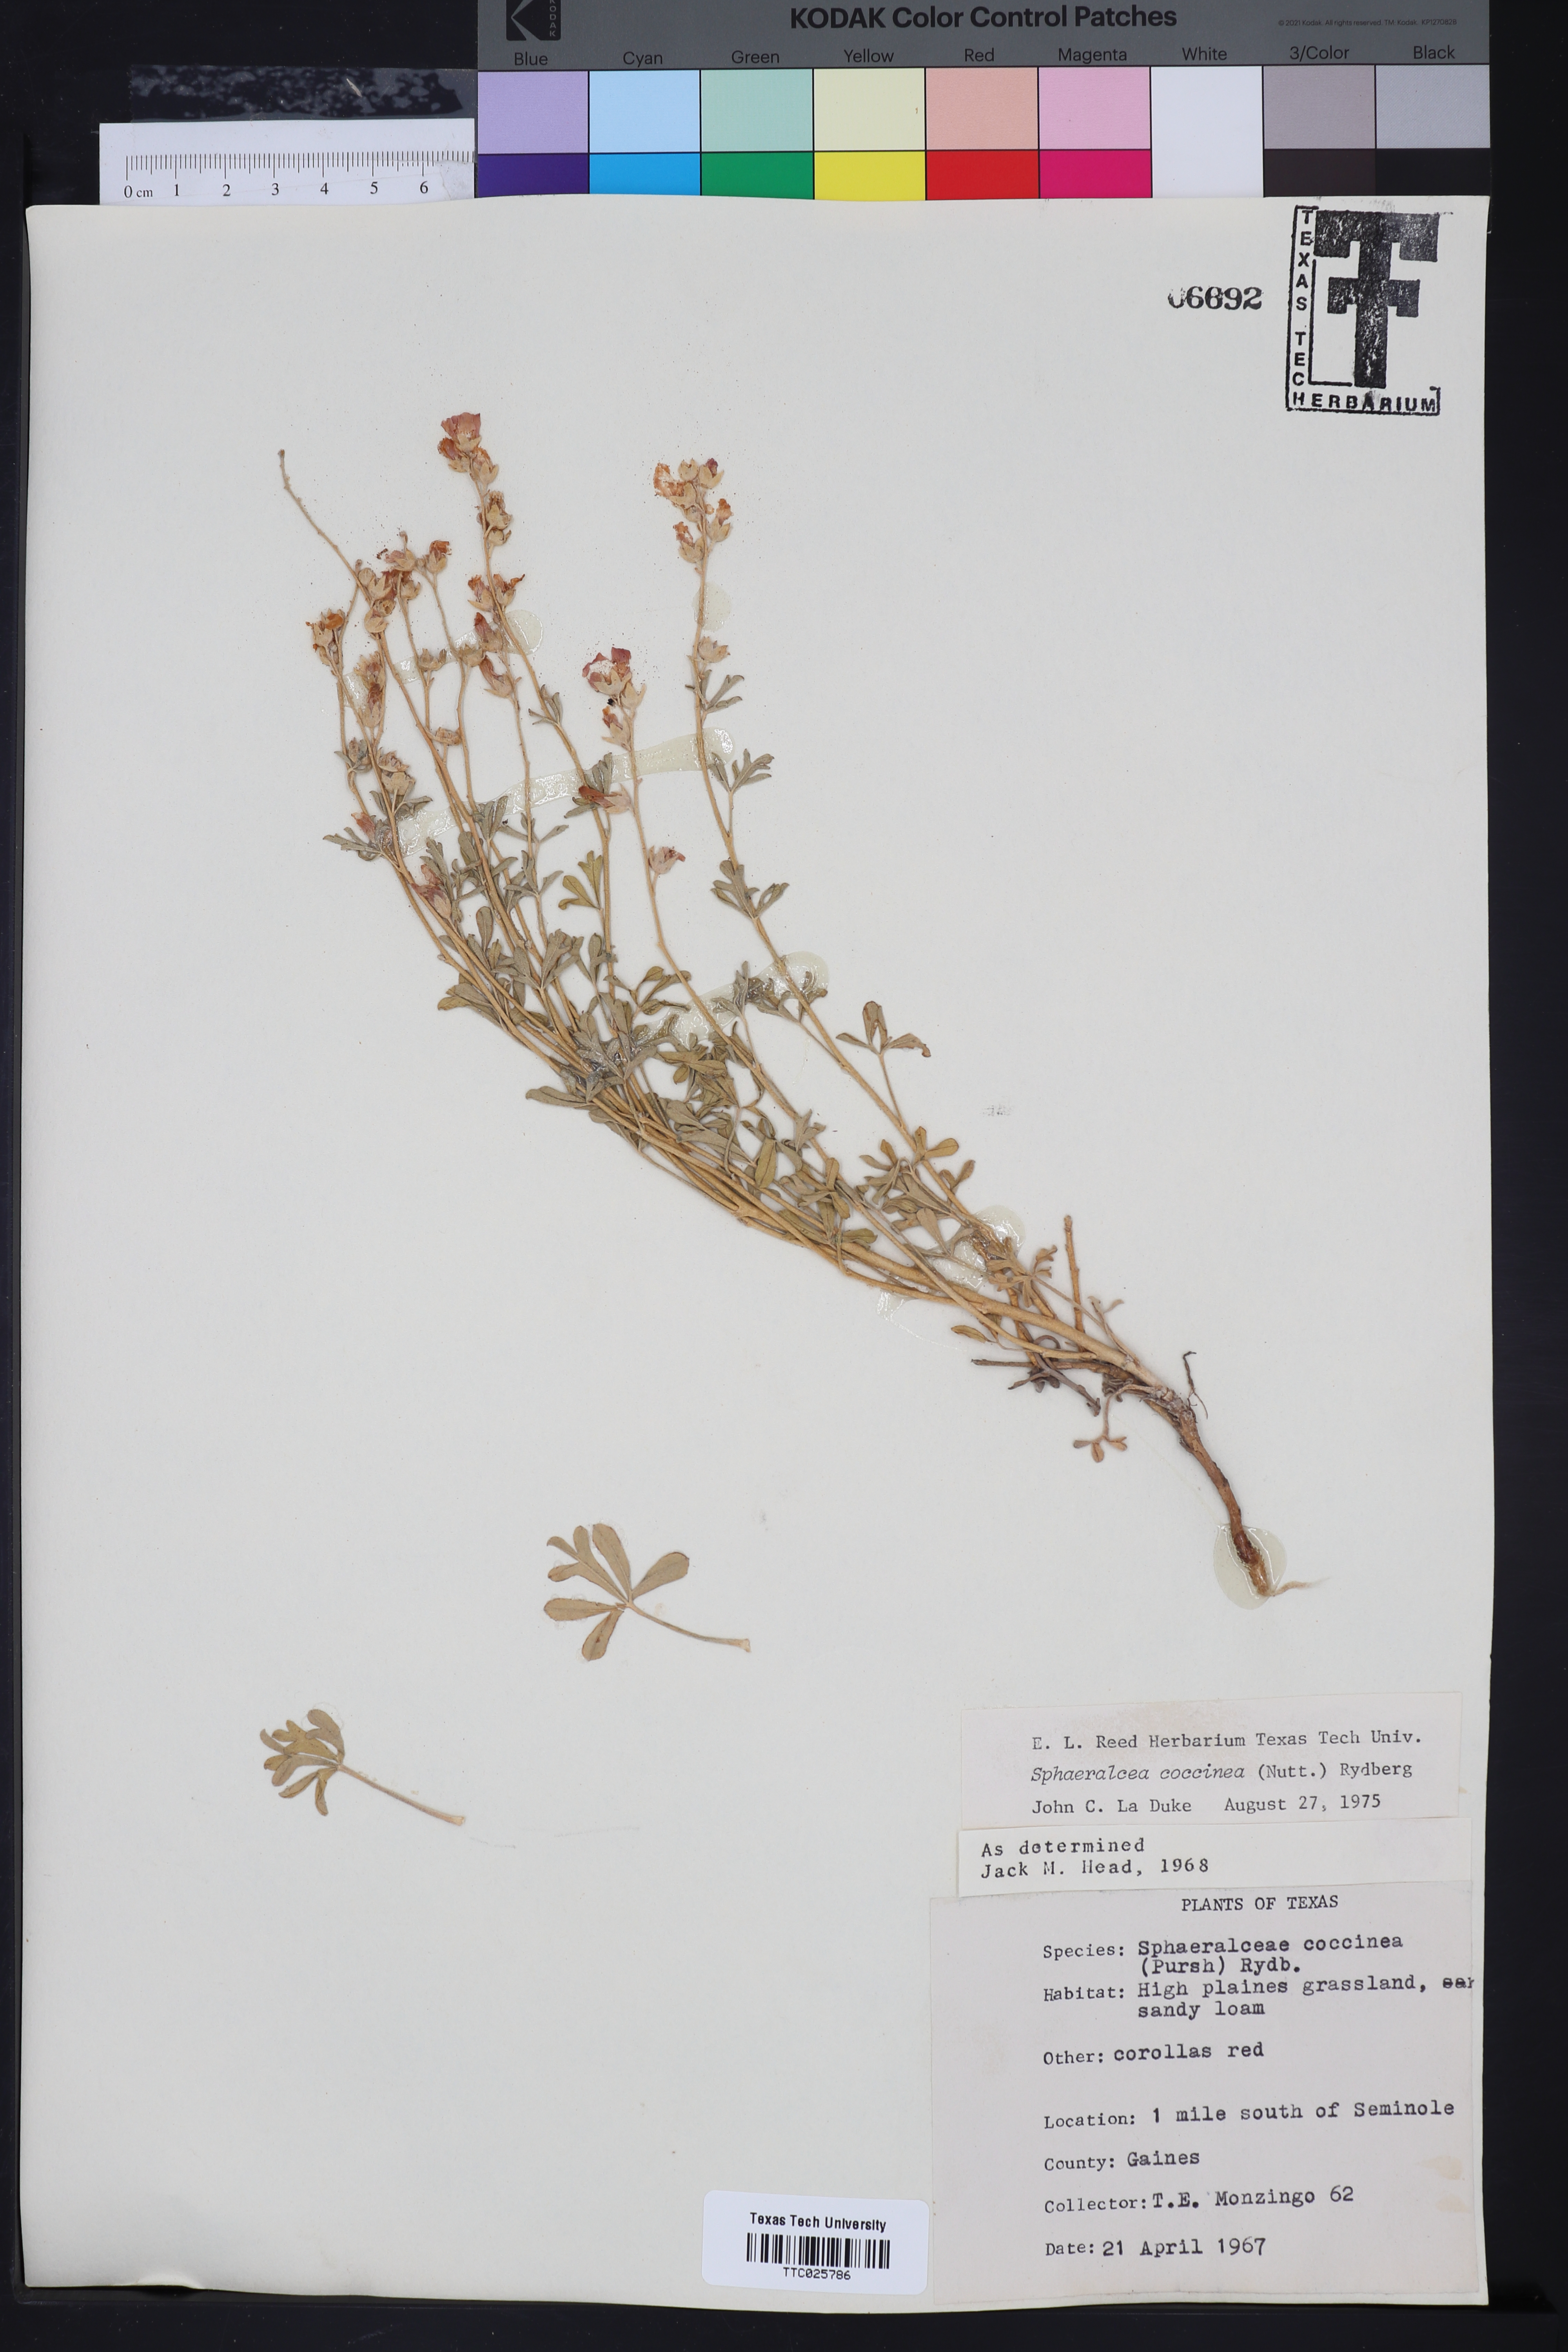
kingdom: Plantae
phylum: Tracheophyta
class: Magnoliopsida
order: Malvales
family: Malvaceae
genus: Sphaeralcea
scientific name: Sphaeralcea coccinea
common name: Moss-rose
